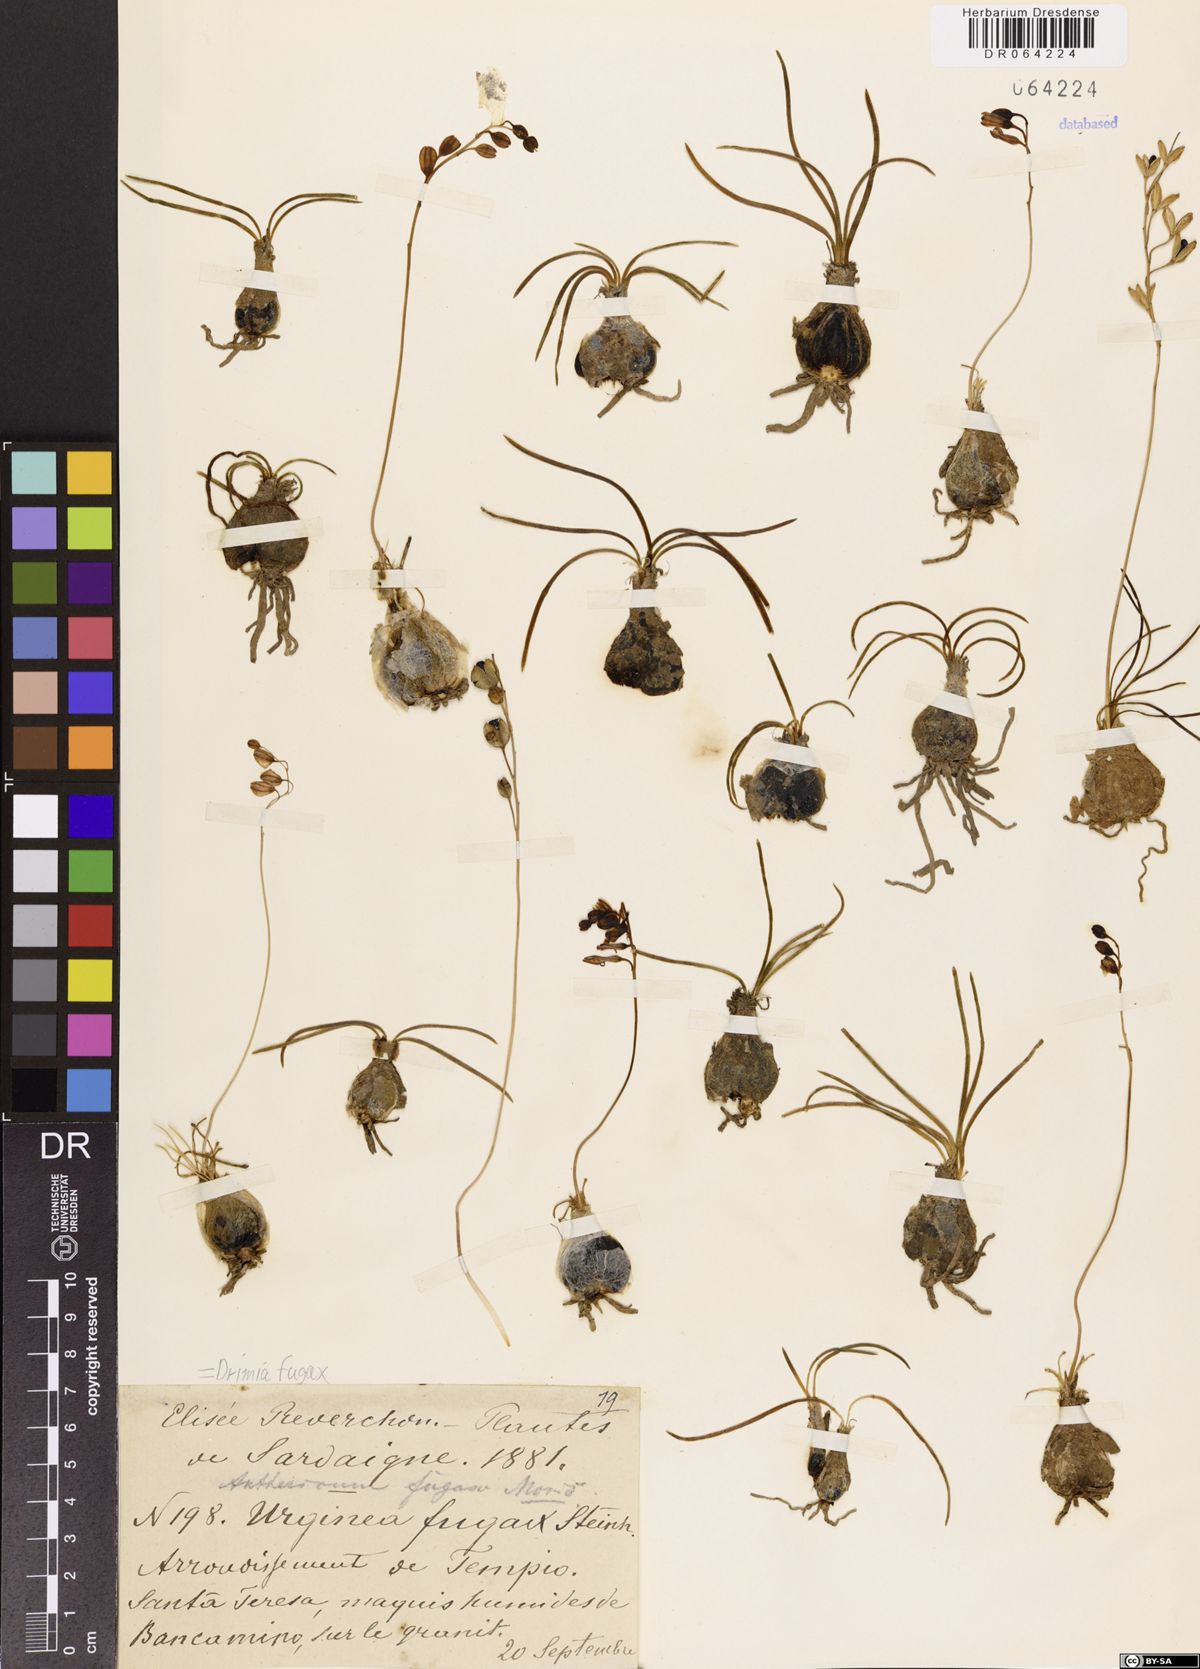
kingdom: Plantae
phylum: Tracheophyta
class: Liliopsida
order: Asparagales
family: Asparagaceae
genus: Drimia
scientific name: Drimia fugax
